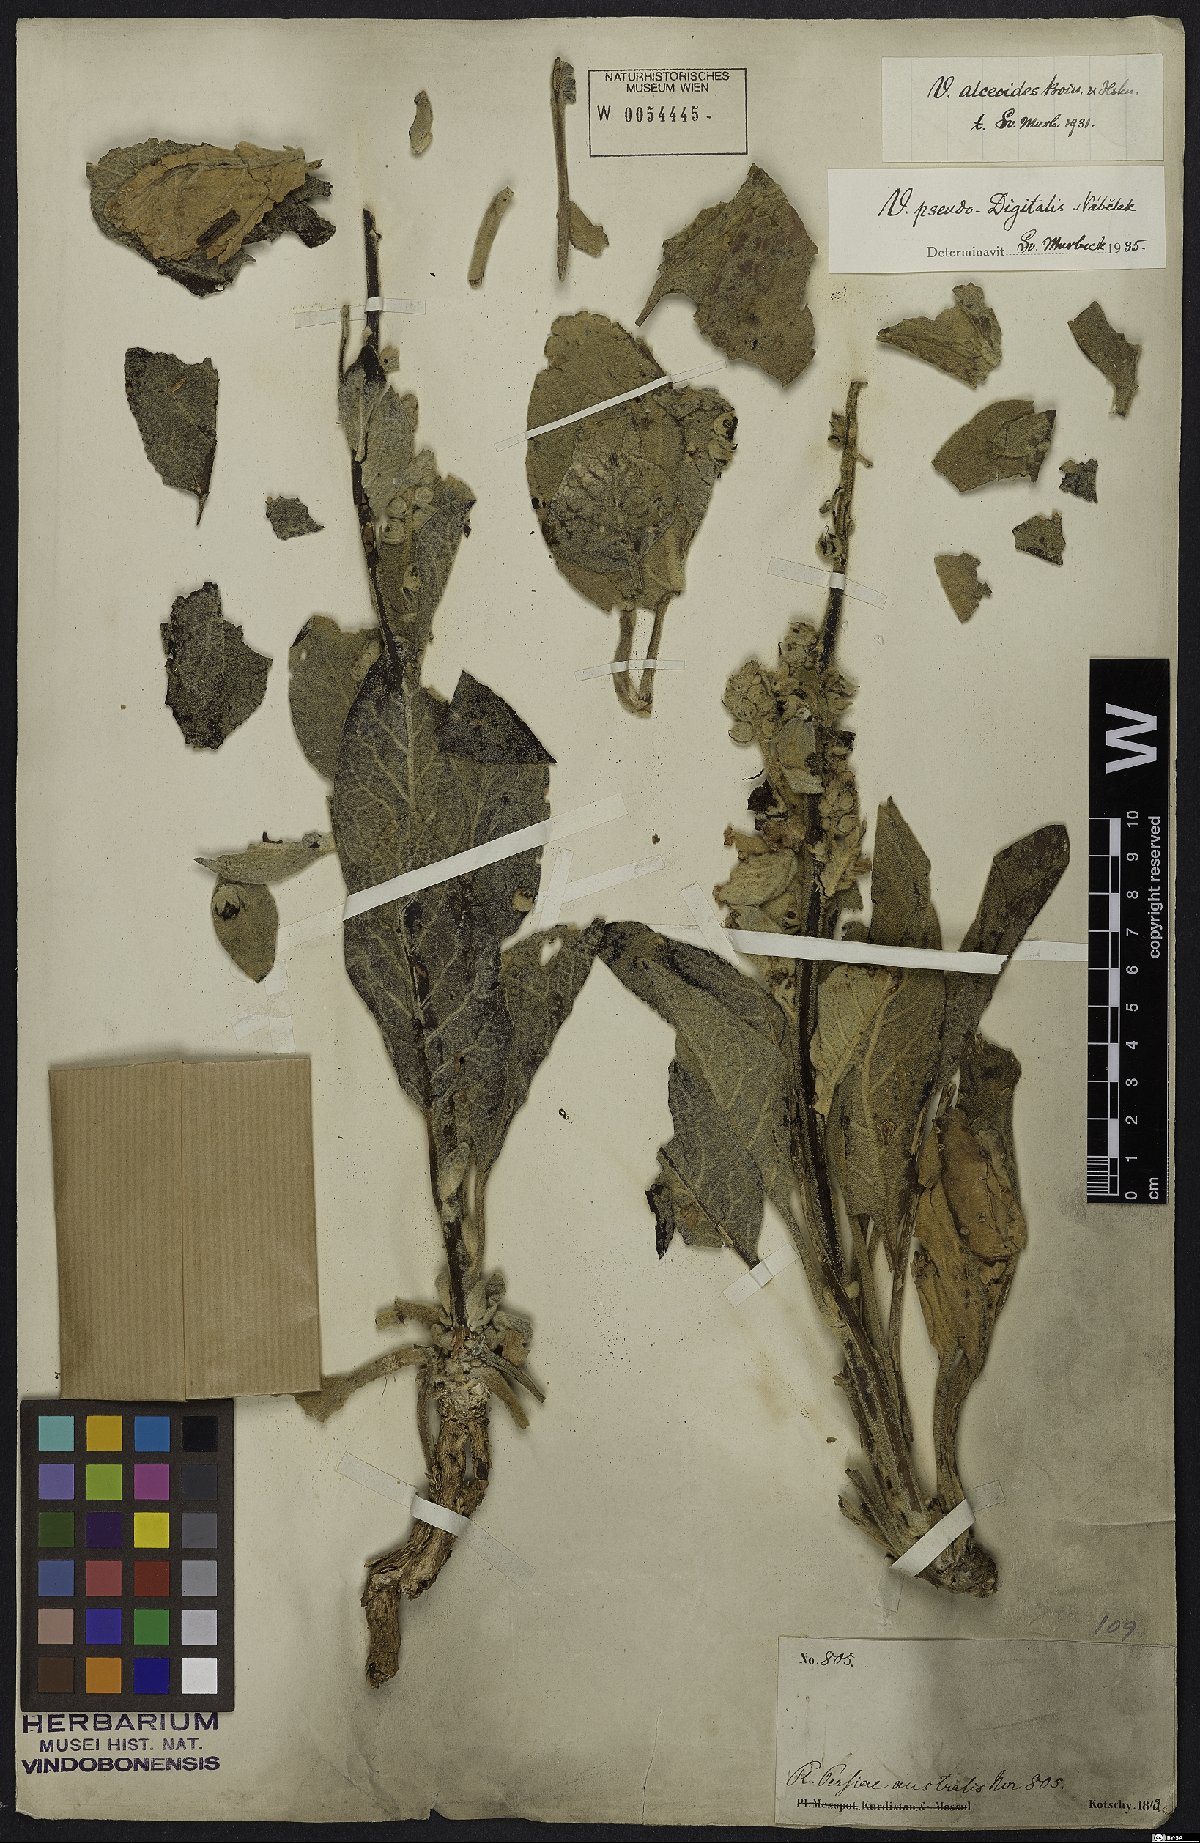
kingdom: Plantae
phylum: Tracheophyta
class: Magnoliopsida
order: Lamiales
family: Scrophulariaceae
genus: Verbascum
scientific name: Verbascum pseudodigitalis
